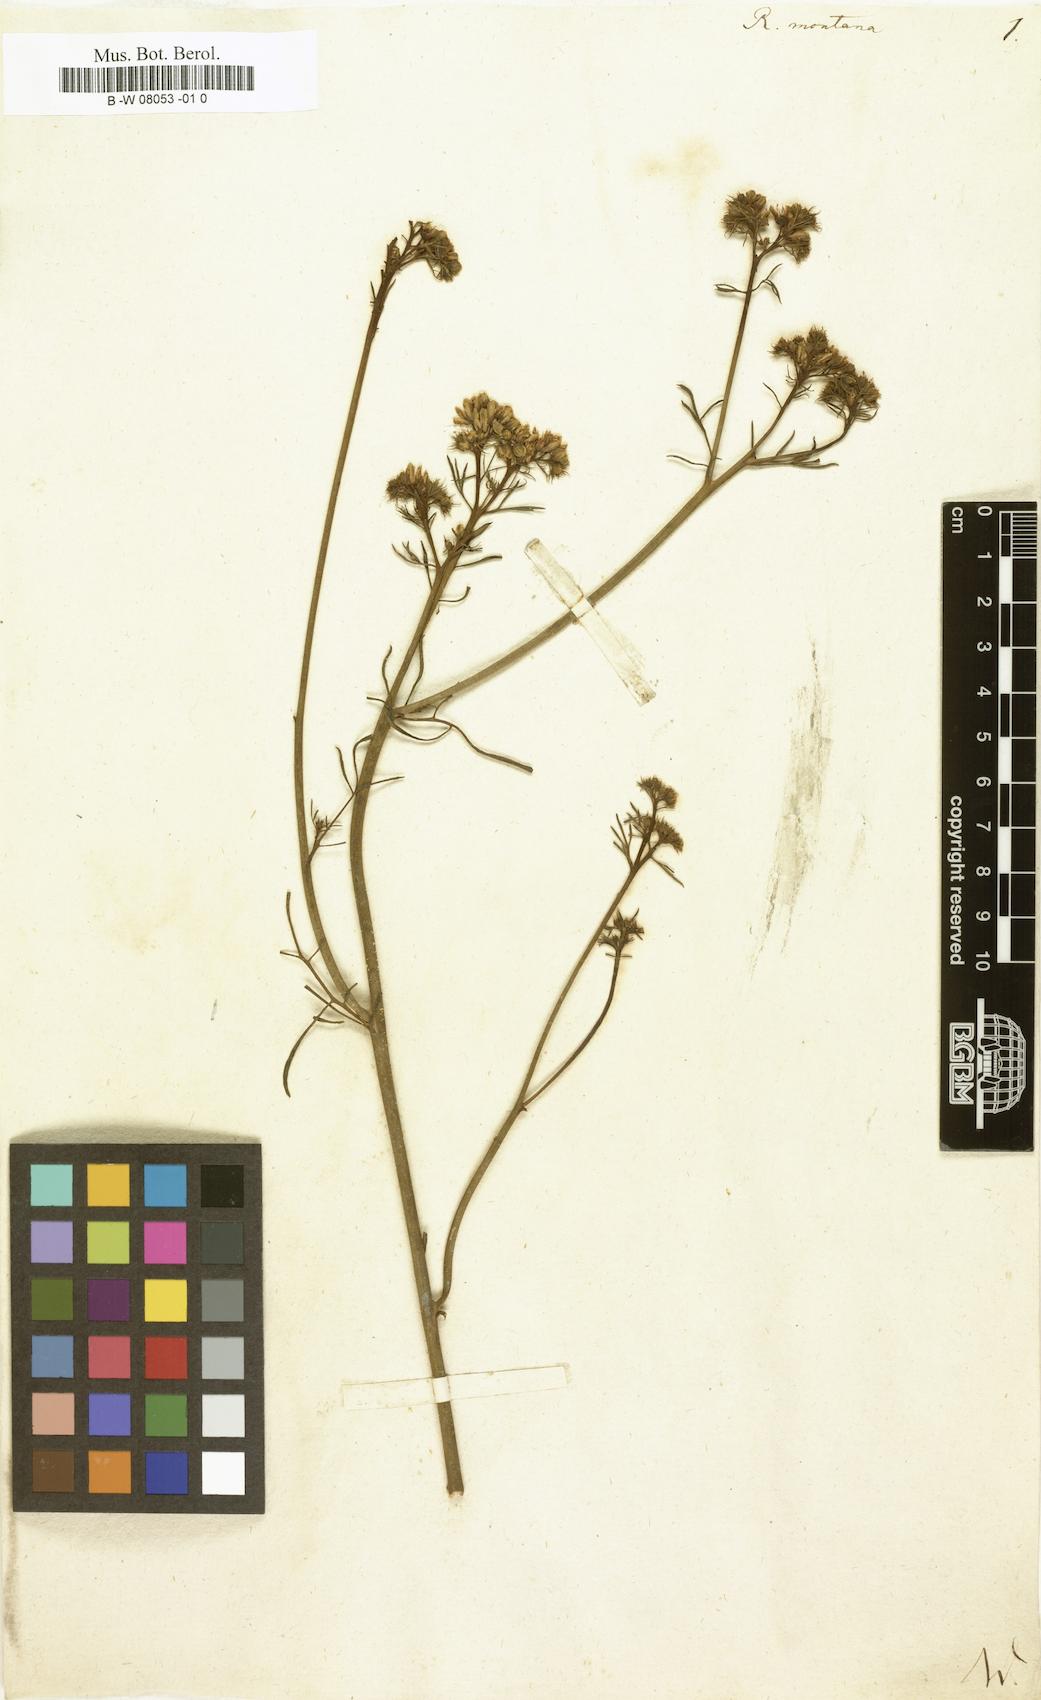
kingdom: Plantae
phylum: Tracheophyta
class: Magnoliopsida
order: Sapindales
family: Rutaceae
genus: Ruta
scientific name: Ruta montana
